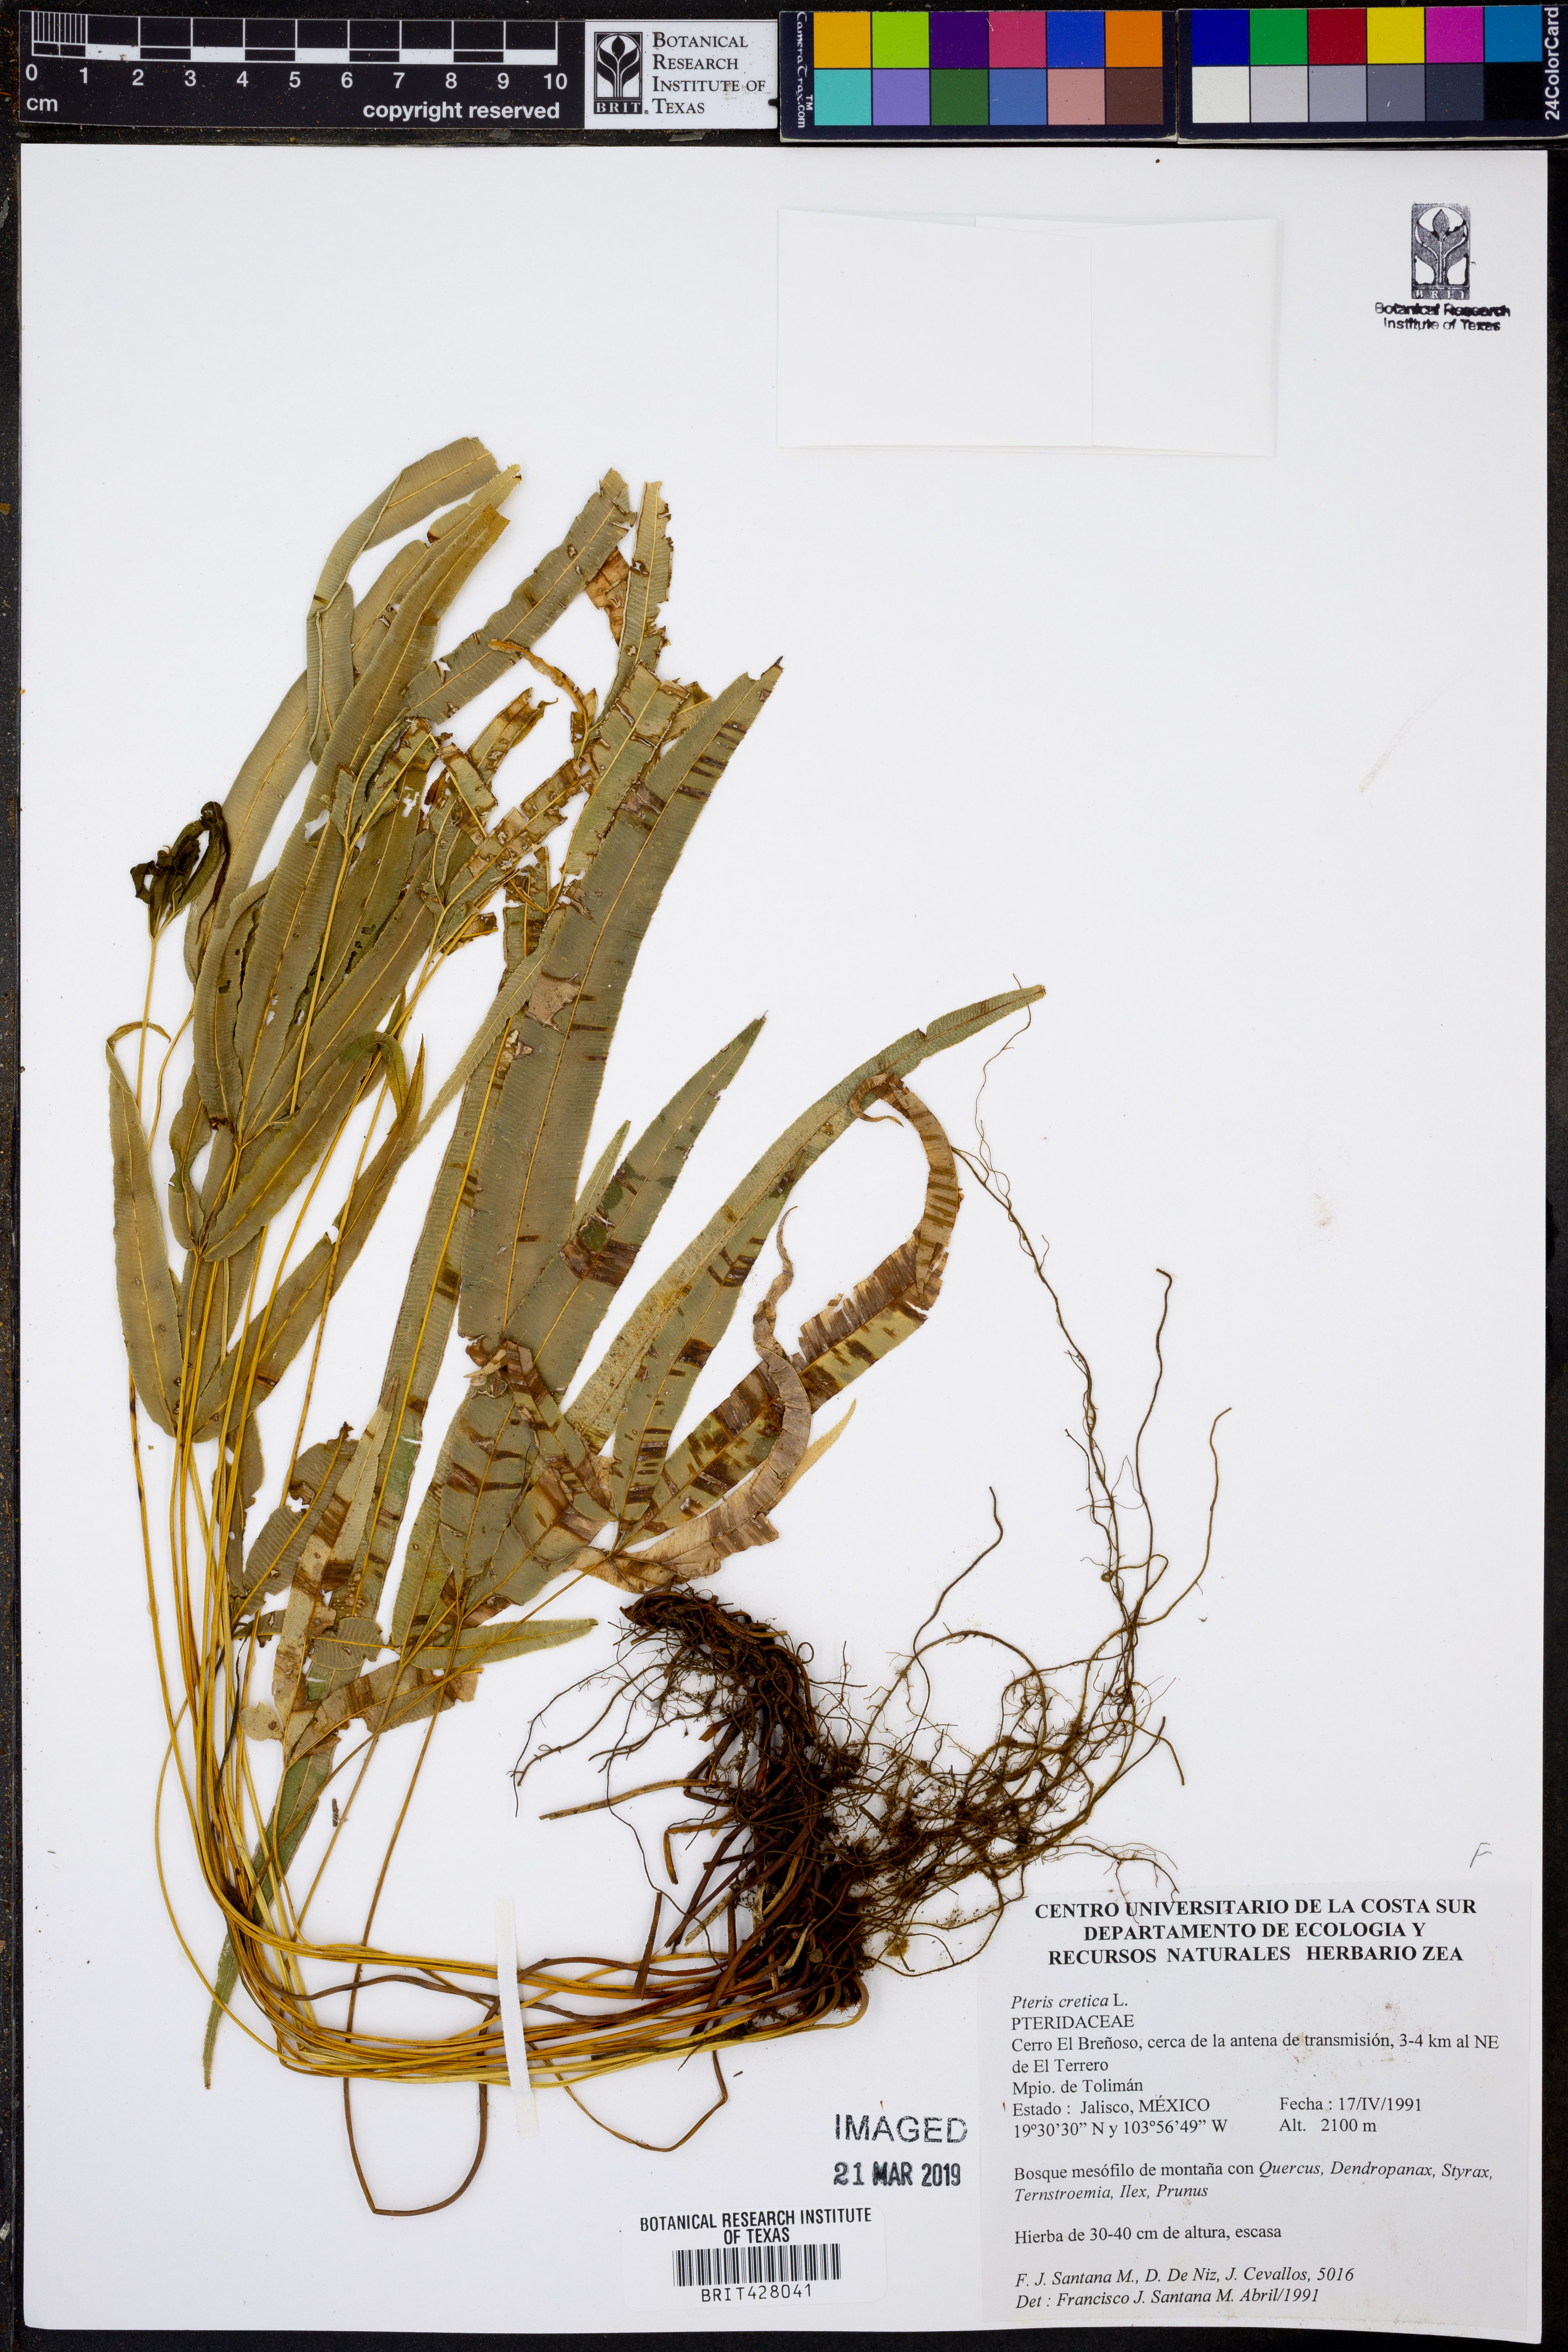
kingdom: Plantae
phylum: Tracheophyta
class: Polypodiopsida
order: Polypodiales
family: Pteridaceae
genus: Pteris
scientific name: Pteris cretica
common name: Ribbon fern
